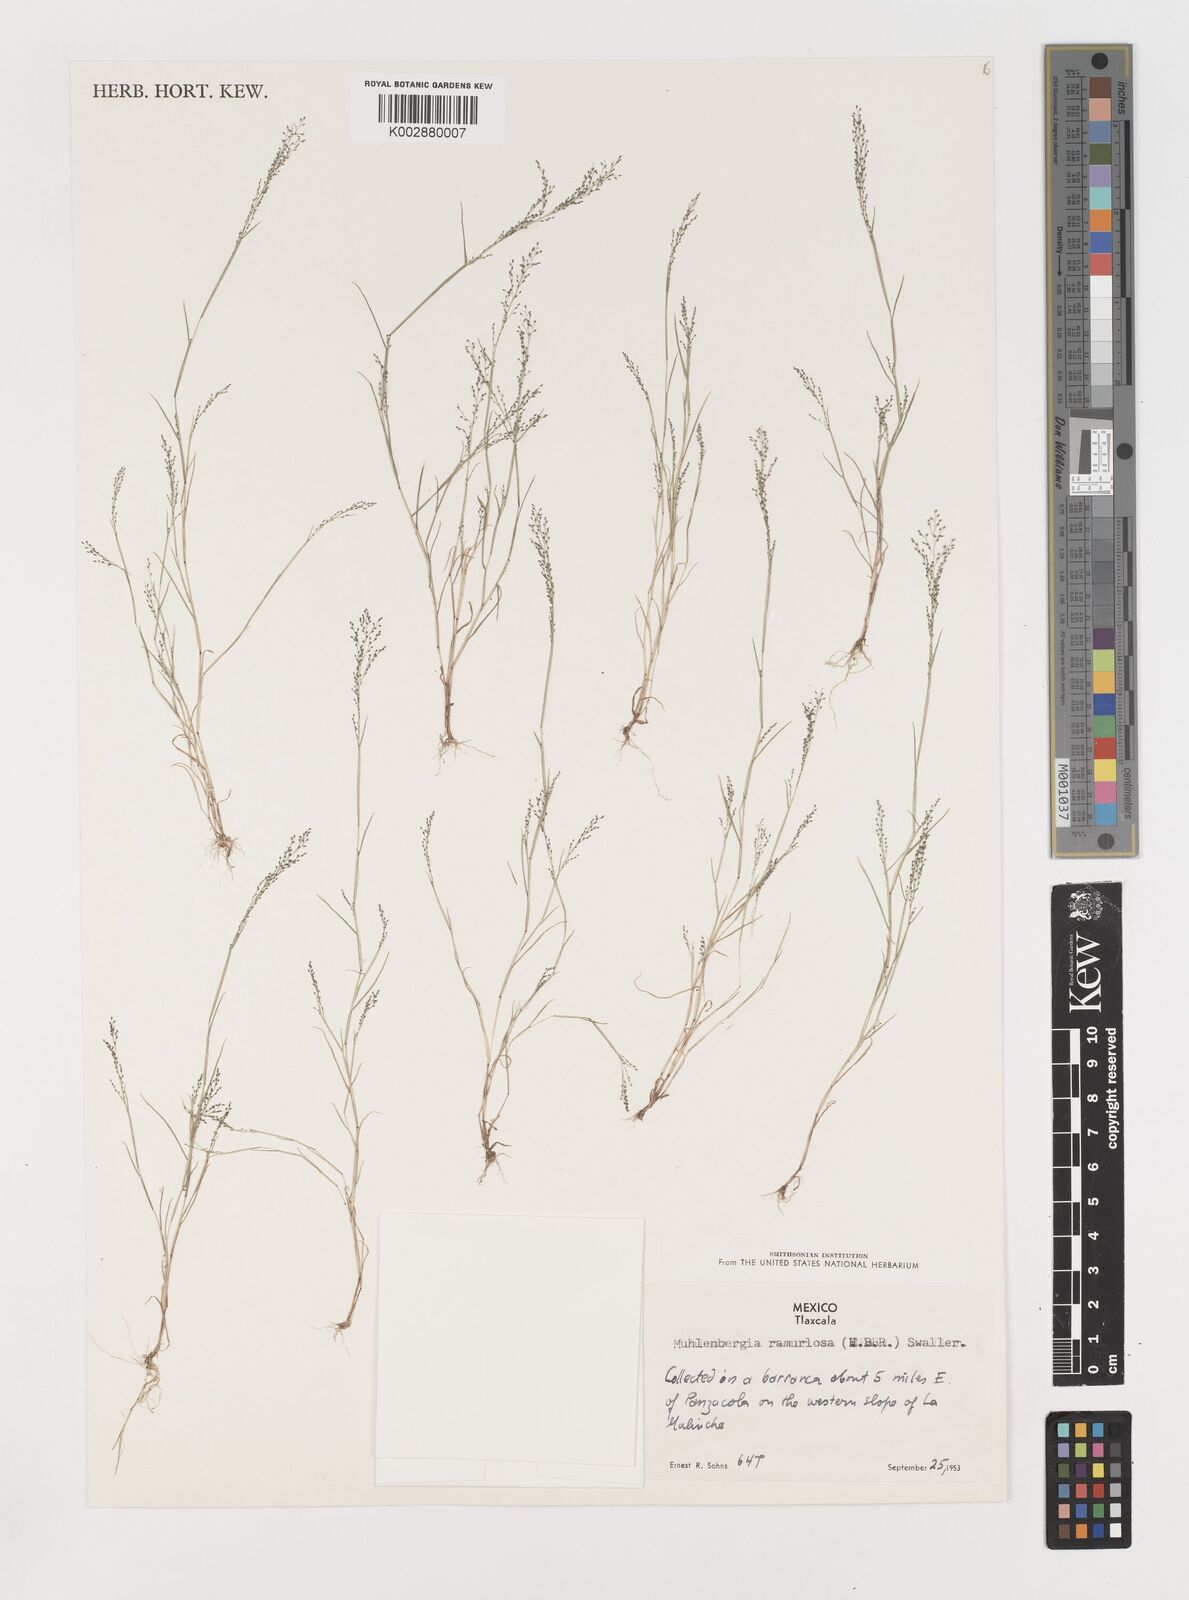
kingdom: Plantae
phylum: Tracheophyta
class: Liliopsida
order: Poales
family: Poaceae
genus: Muhlenbergia
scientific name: Muhlenbergia ramulosa
